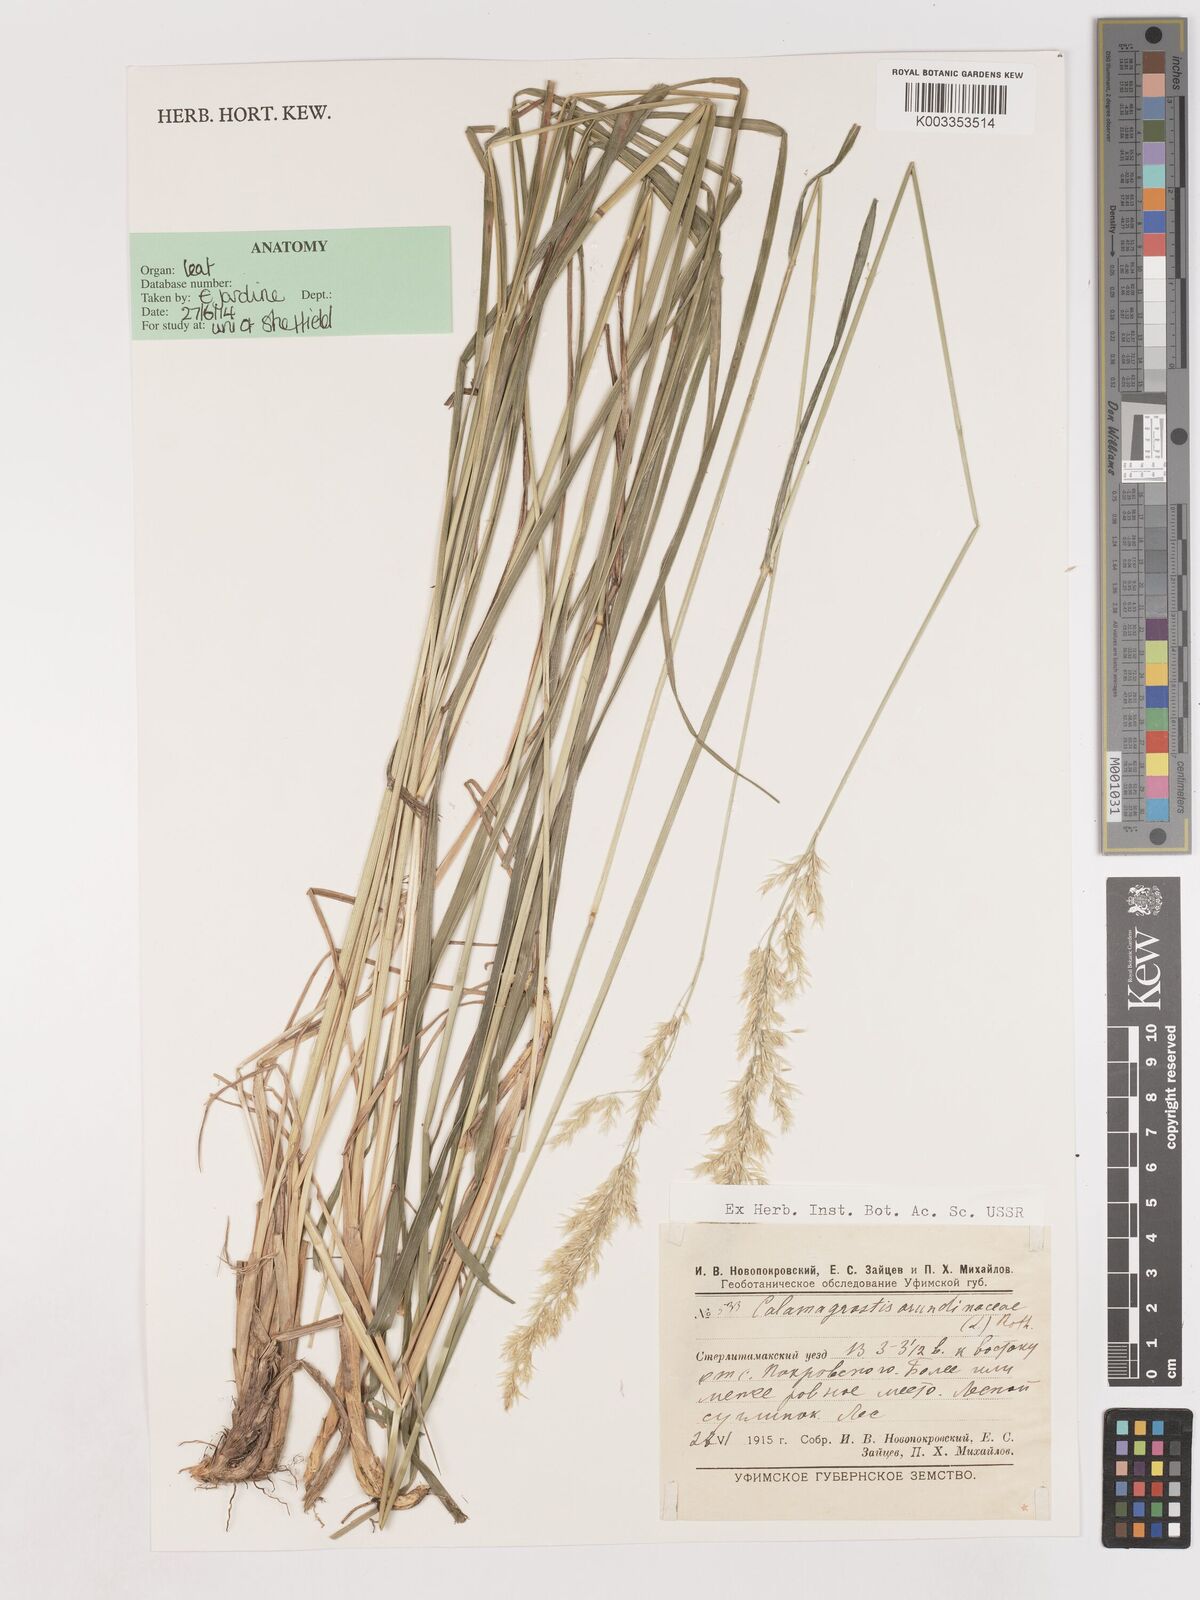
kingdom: Plantae
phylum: Tracheophyta
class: Liliopsida
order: Poales
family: Poaceae
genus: Calamagrostis
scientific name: Calamagrostis
